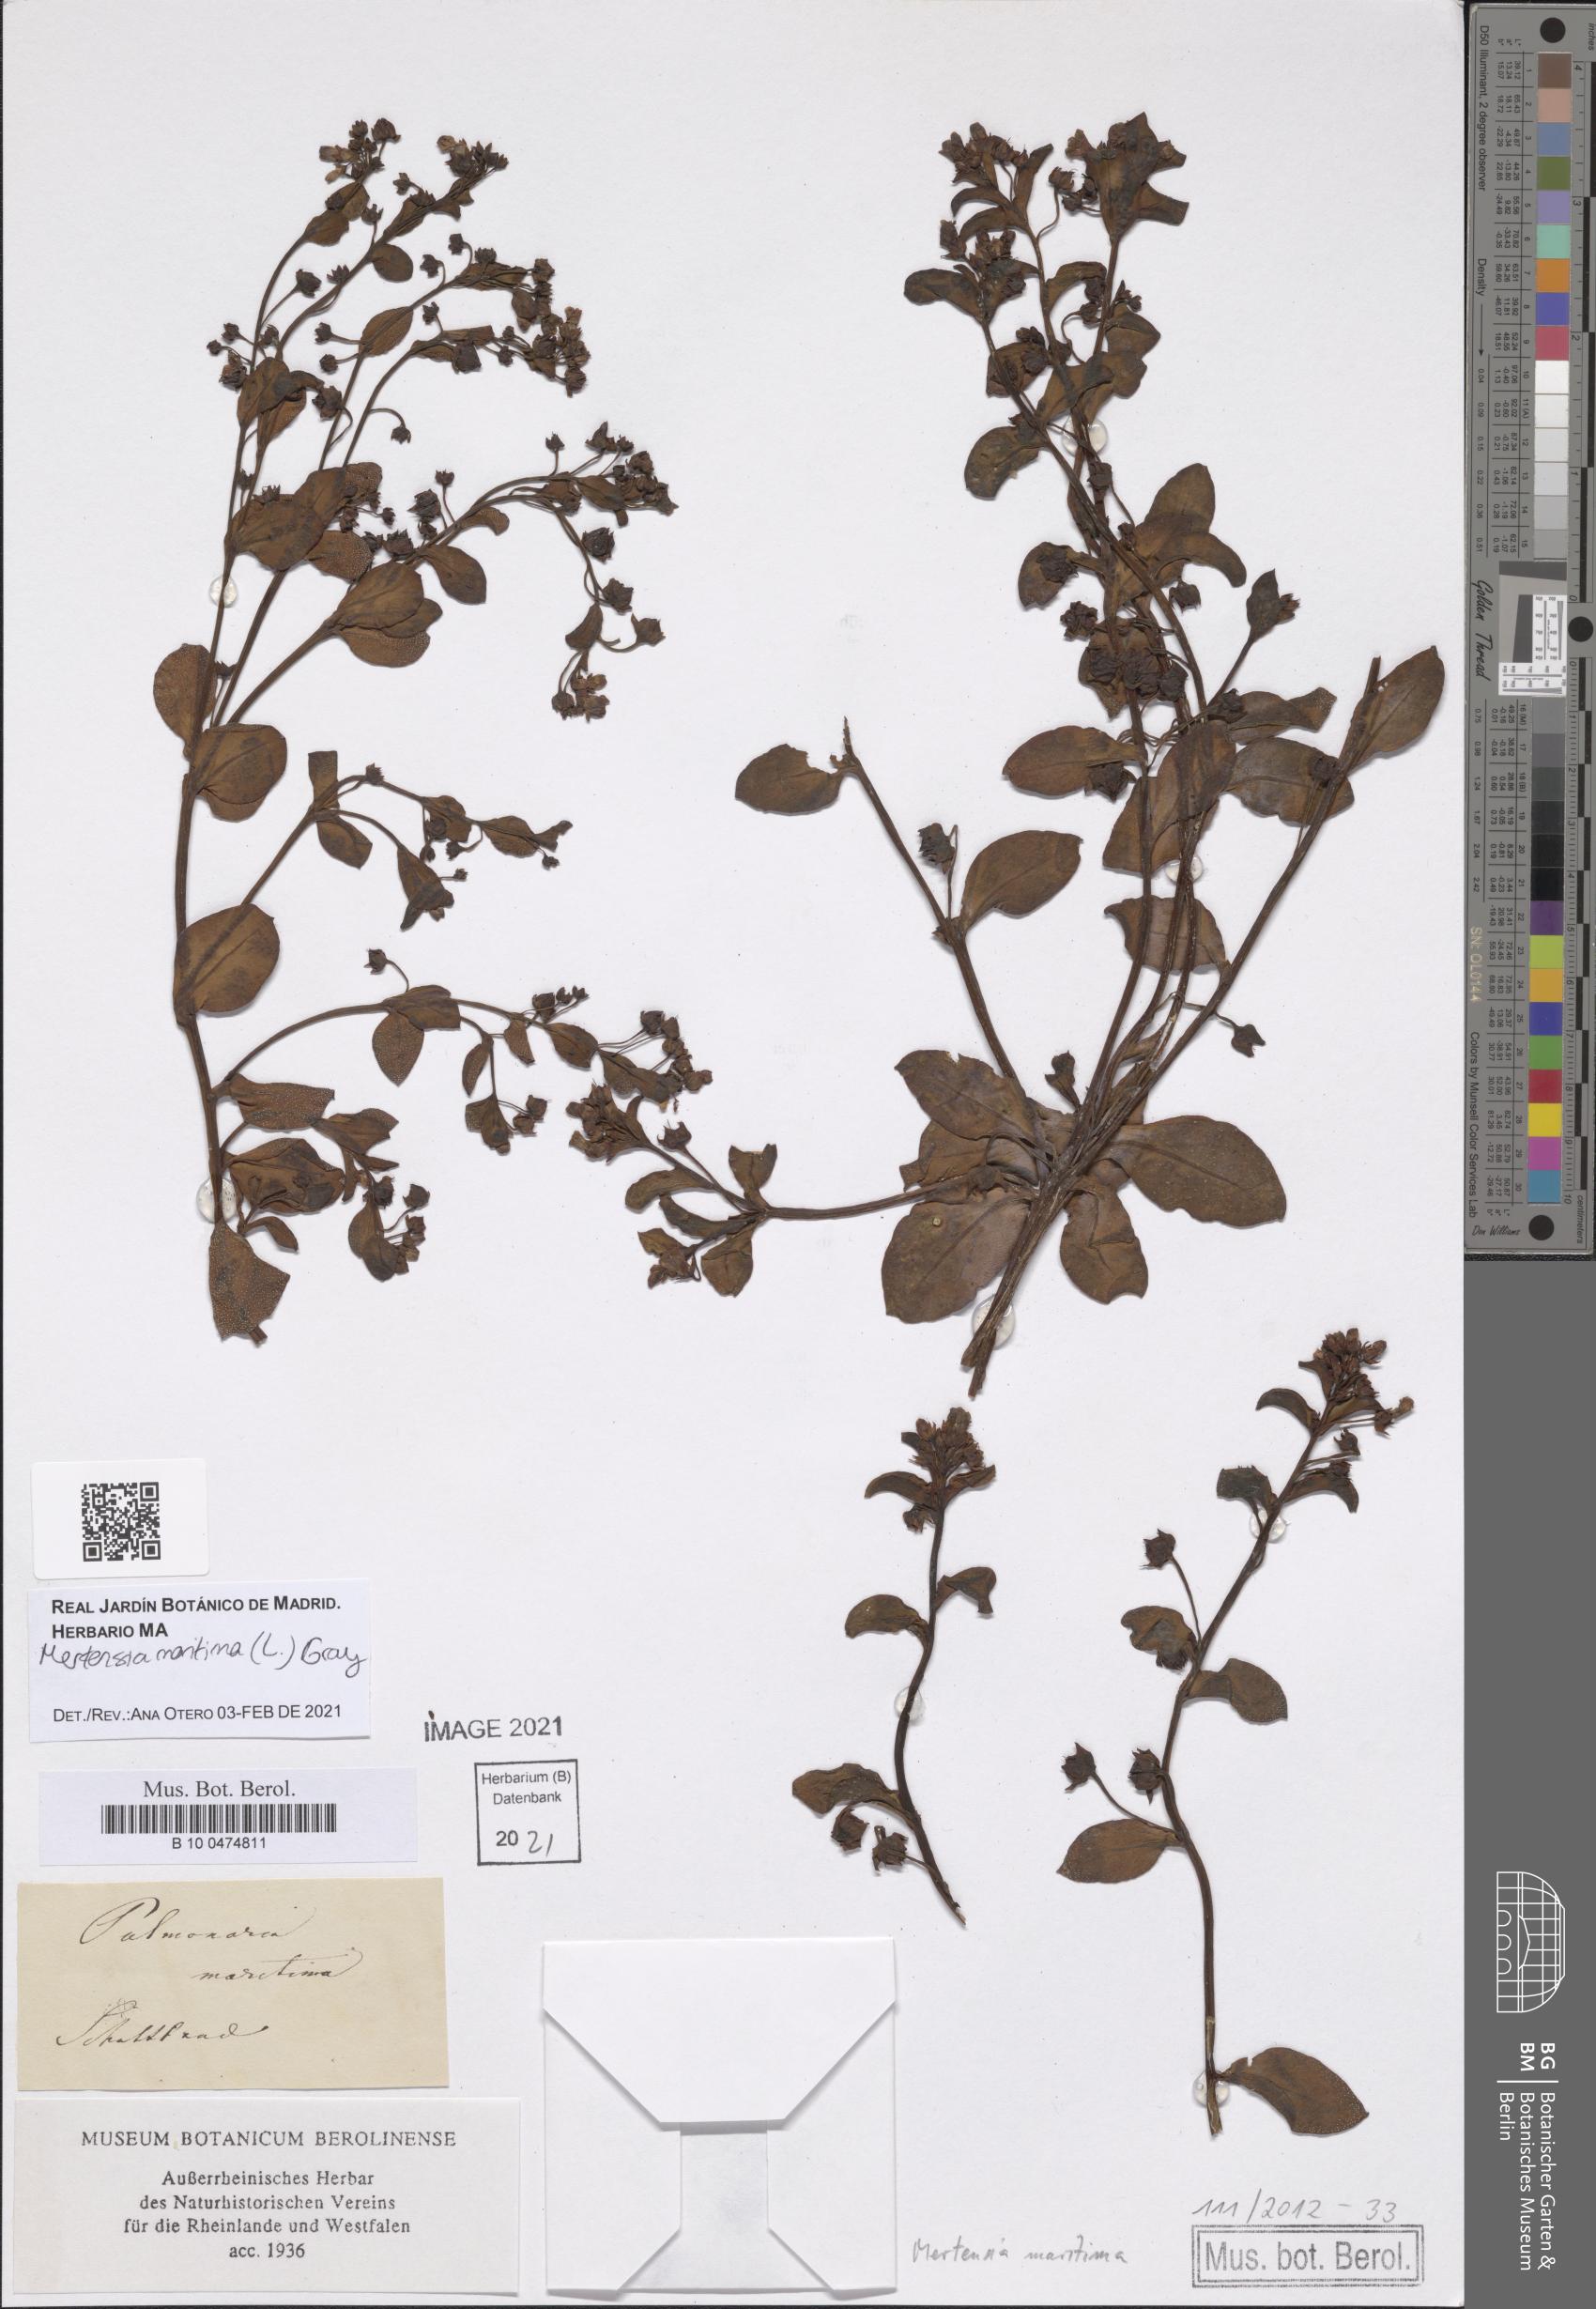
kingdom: Plantae
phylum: Tracheophyta
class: Magnoliopsida
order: Boraginales
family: Boraginaceae
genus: Mertensia
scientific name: Mertensia maritima
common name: Oysterplant
